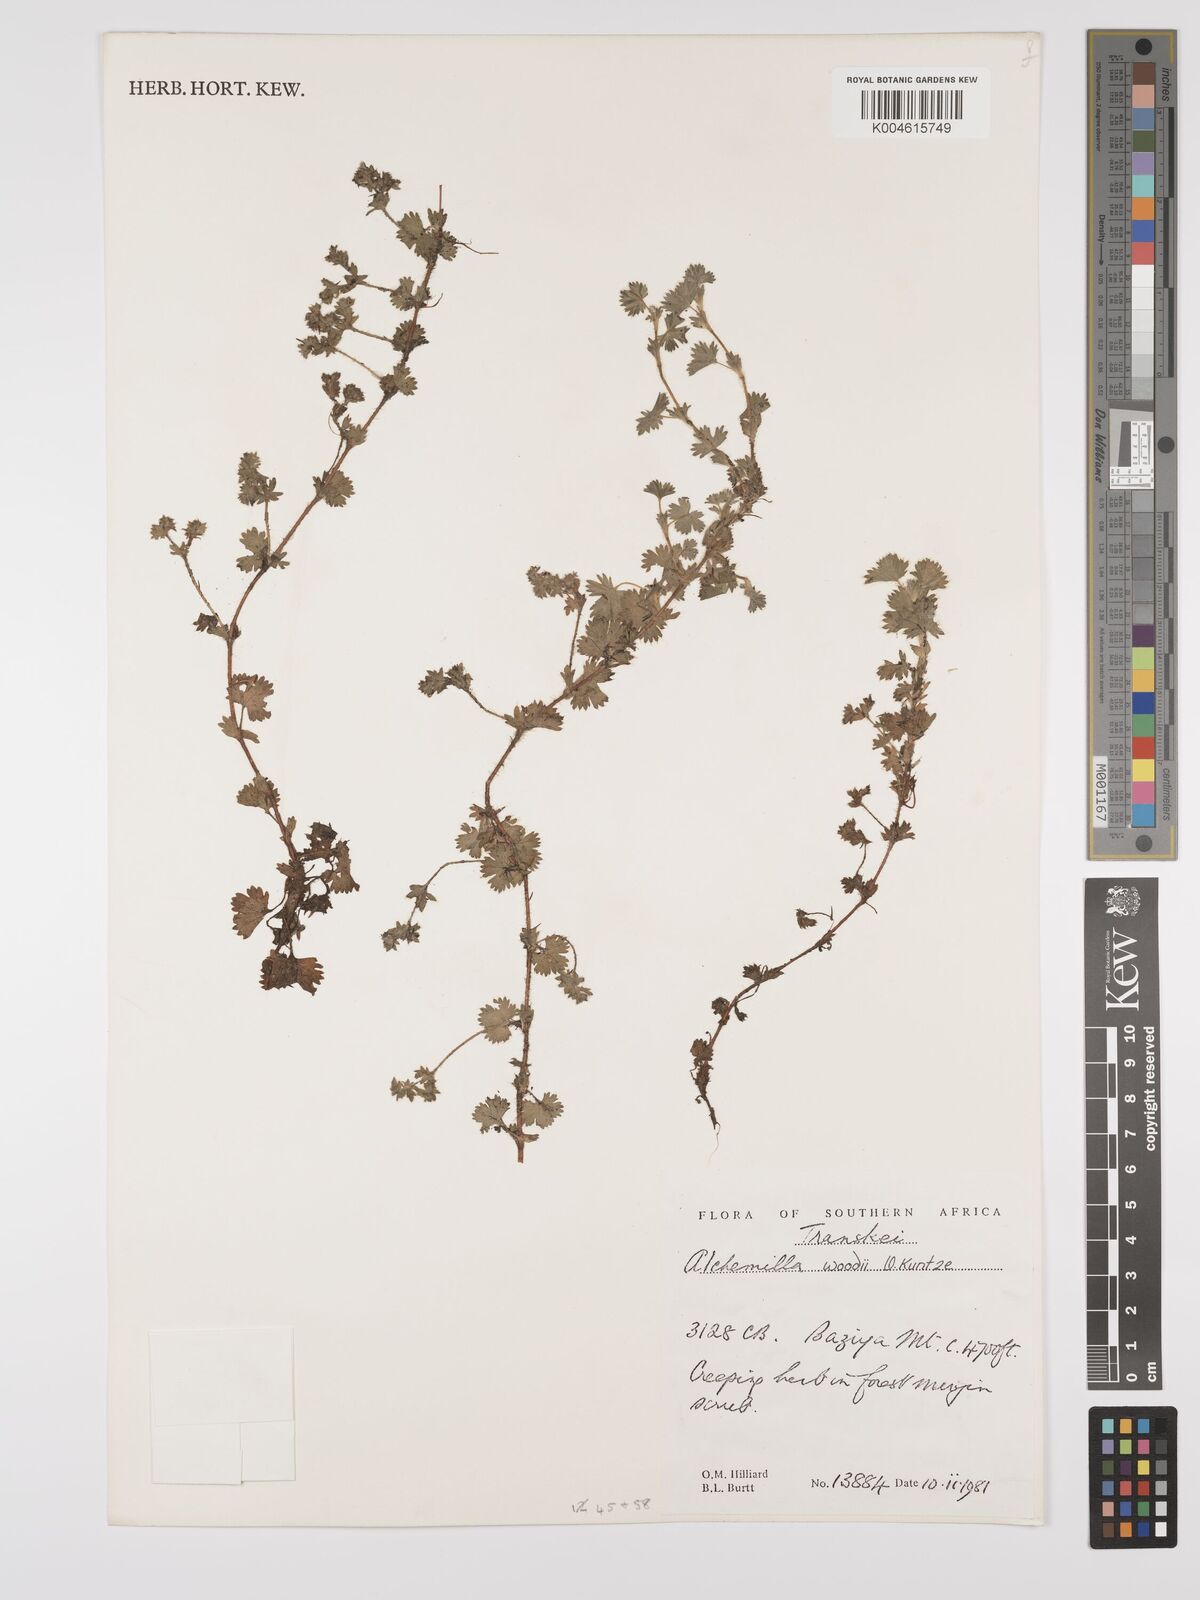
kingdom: Plantae
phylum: Tracheophyta
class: Magnoliopsida
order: Rosales
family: Rosaceae
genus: Alchemilla
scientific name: Alchemilla woodii
